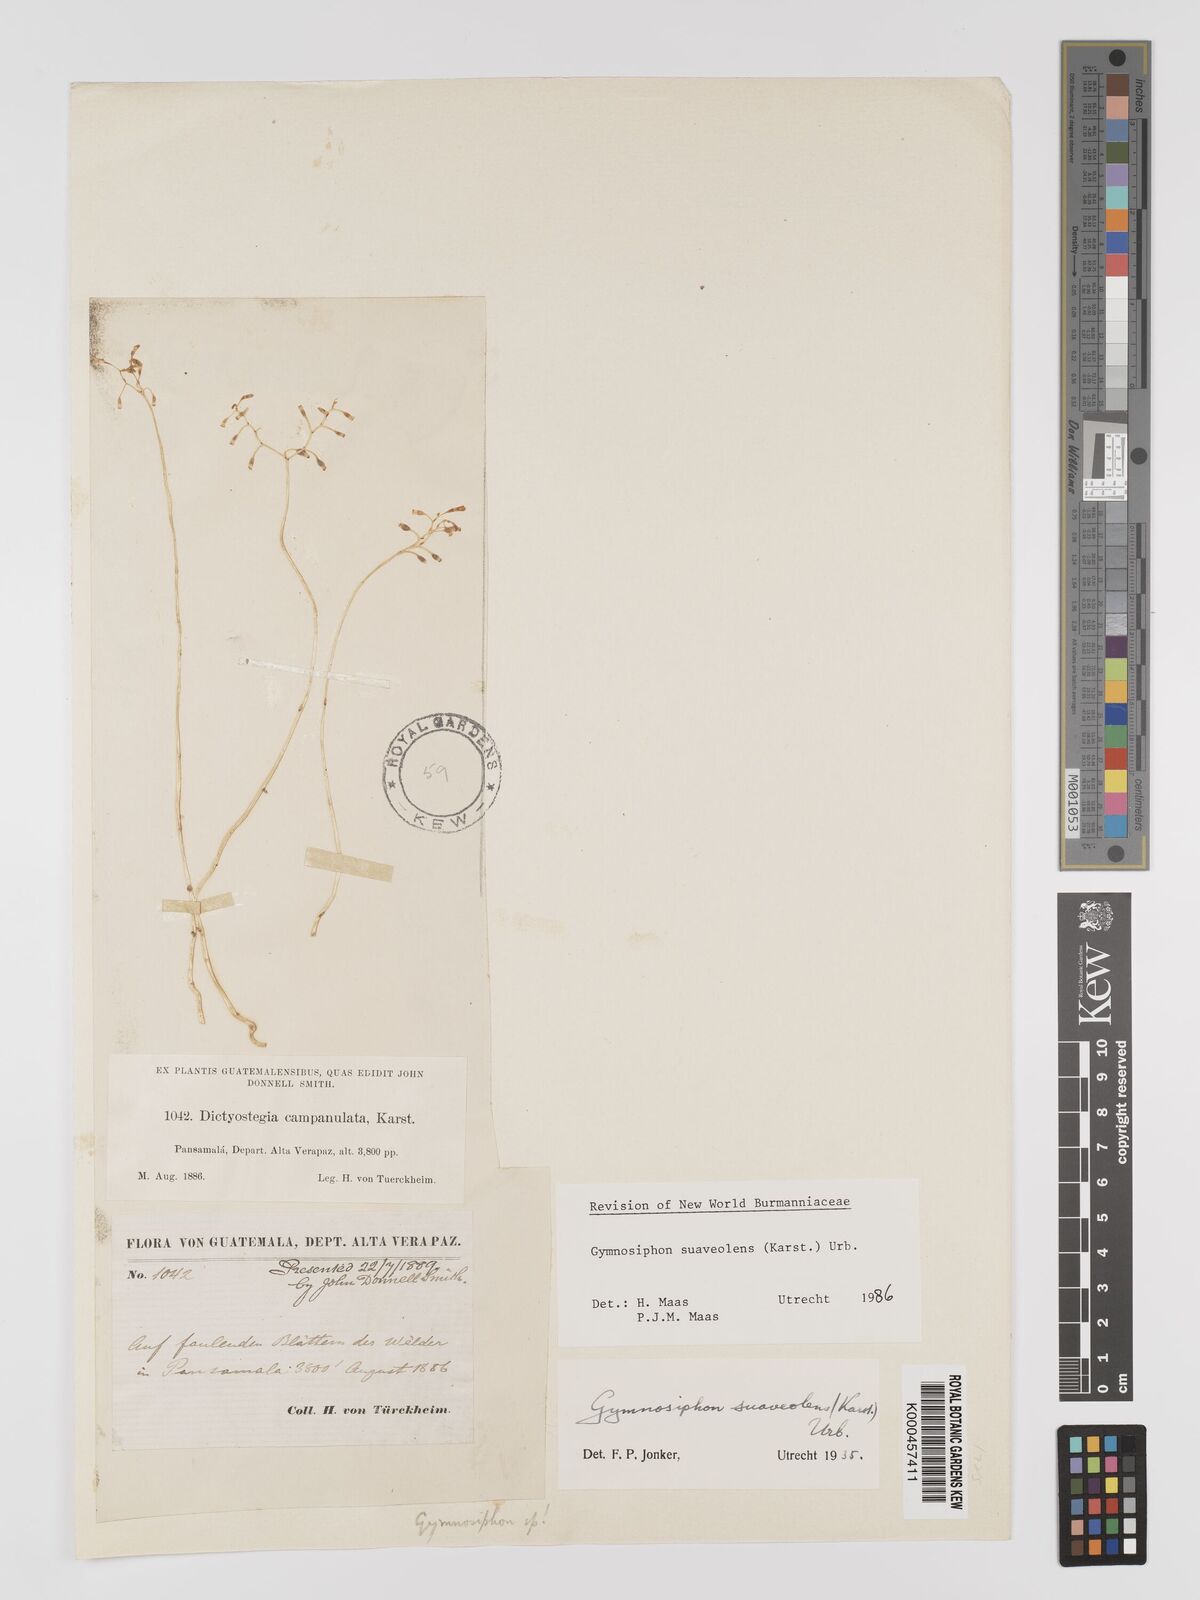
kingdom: Plantae
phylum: Tracheophyta
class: Liliopsida
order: Dioscoreales
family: Burmanniaceae
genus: Gymnosiphon
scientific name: Gymnosiphon suaveolens
